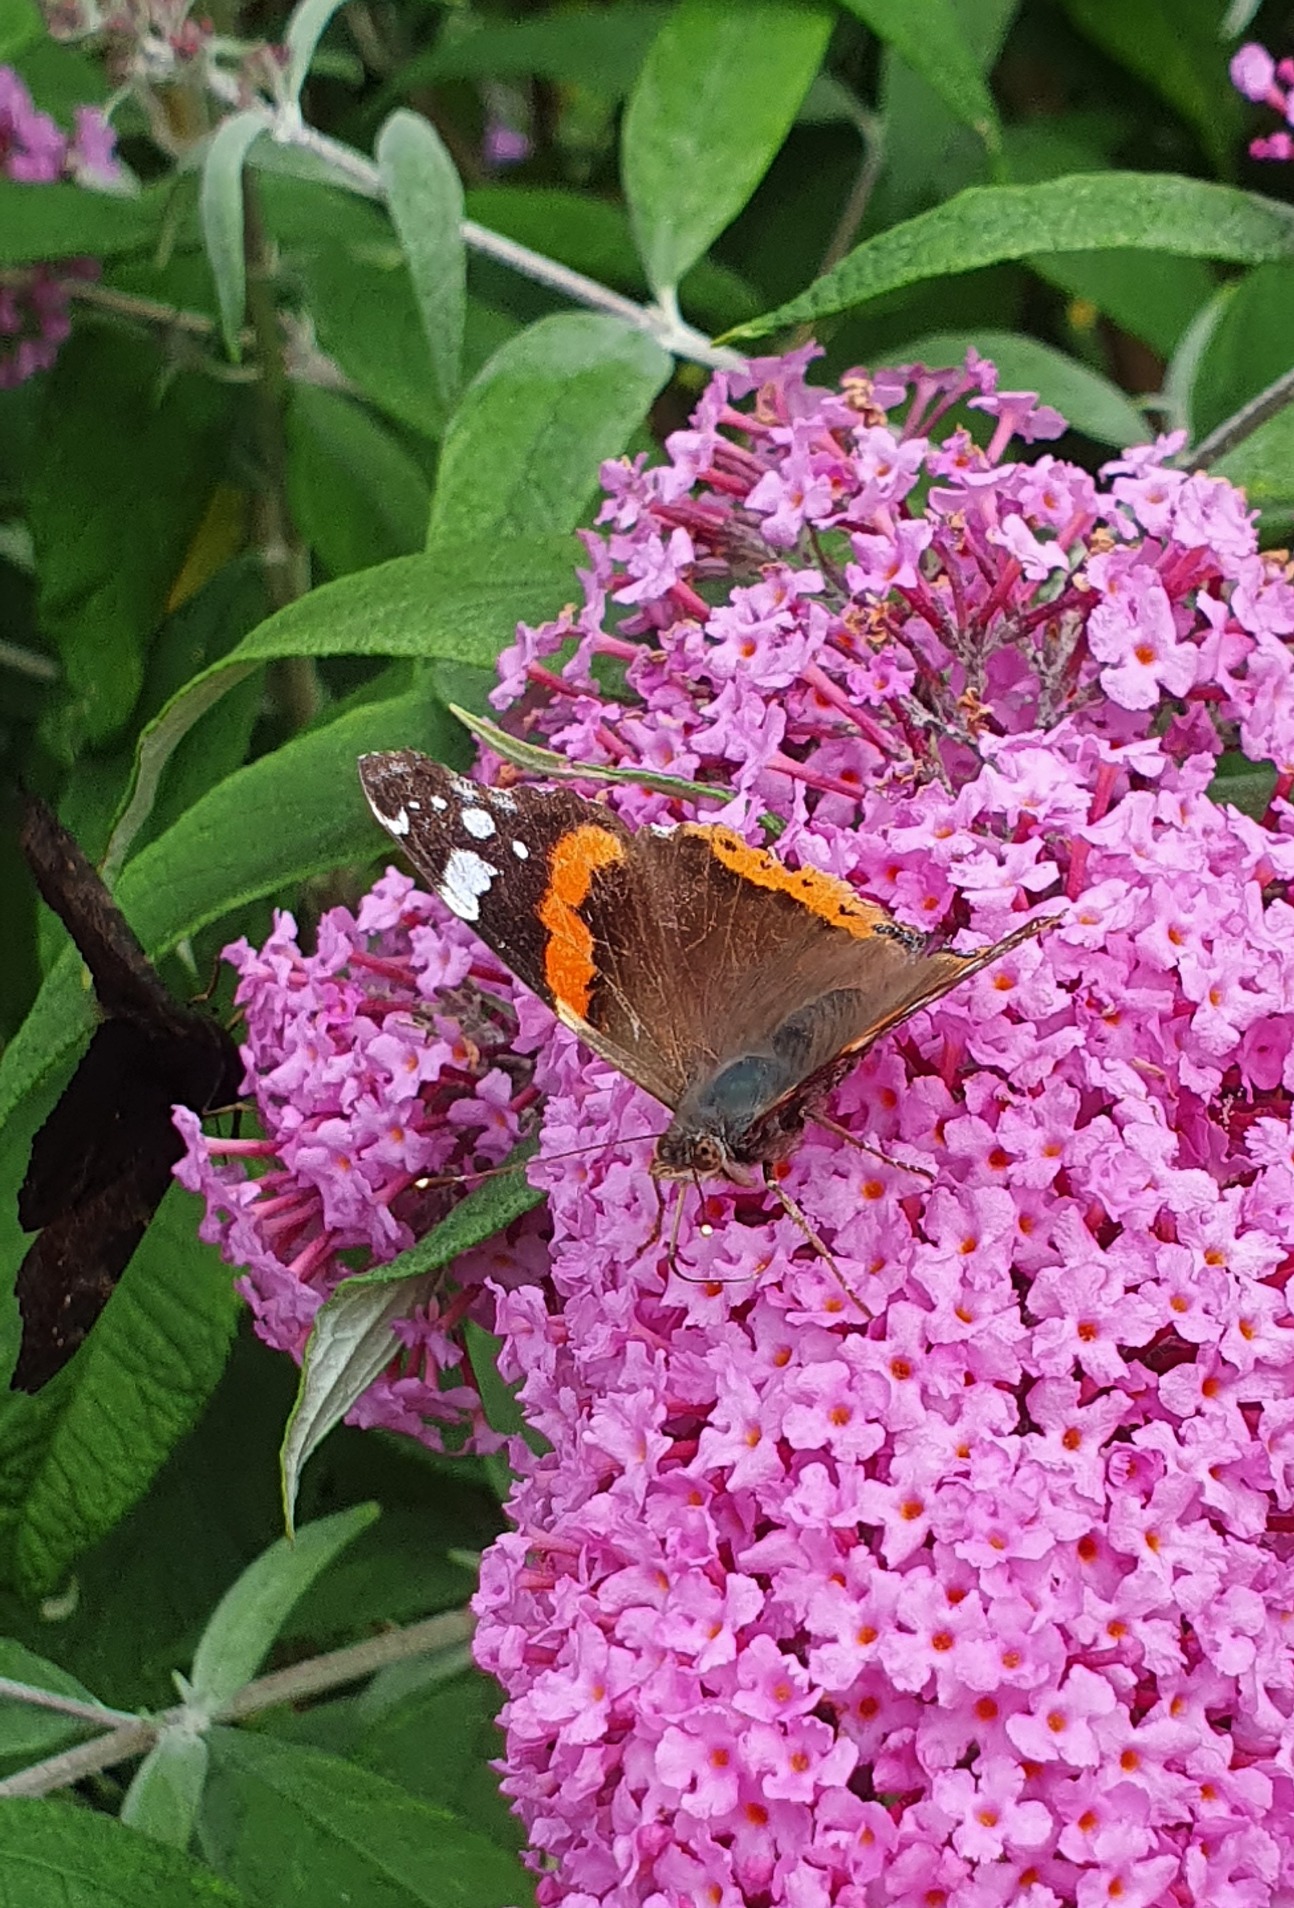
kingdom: Animalia
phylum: Arthropoda
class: Insecta
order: Lepidoptera
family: Nymphalidae
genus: Vanessa
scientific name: Vanessa atalanta
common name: Admiral
